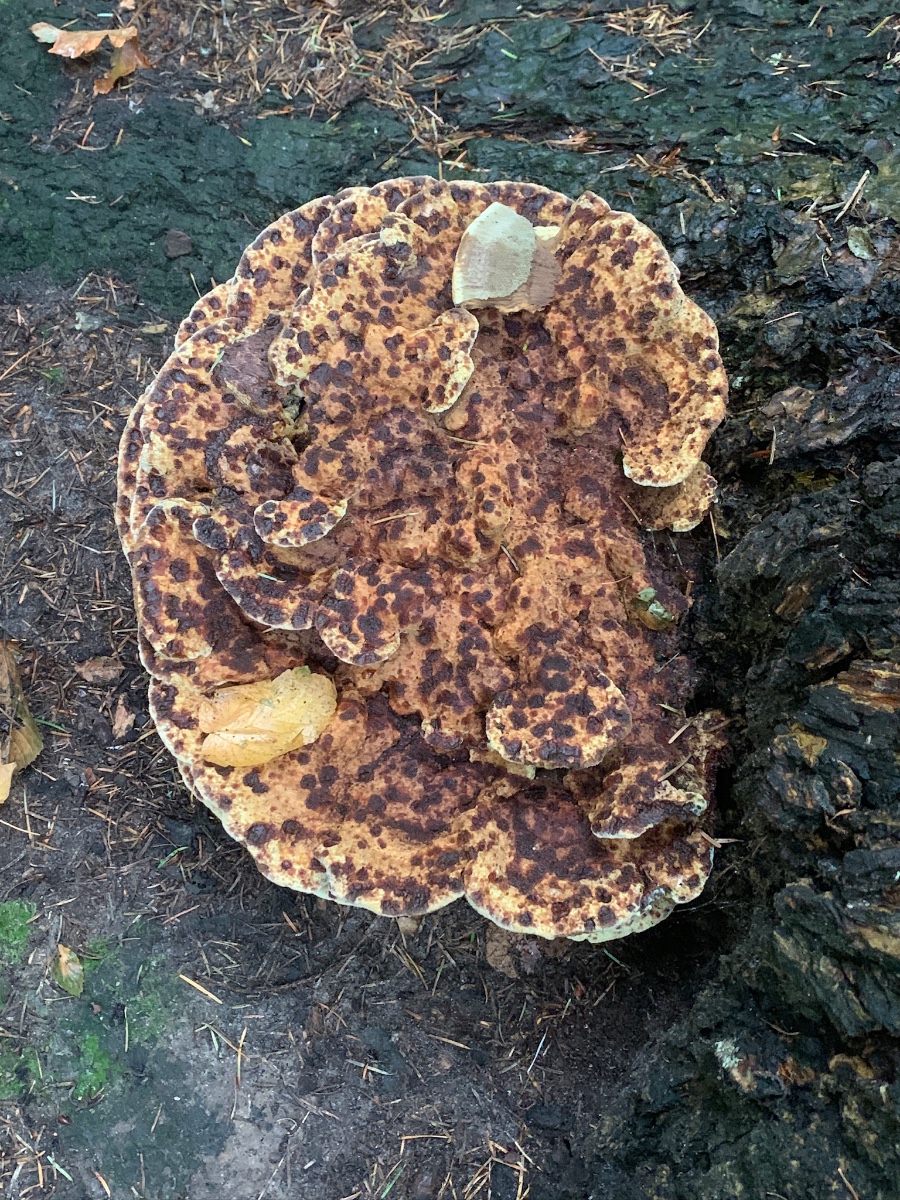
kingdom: Fungi
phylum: Basidiomycota
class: Agaricomycetes
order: Polyporales
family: Laetiporaceae
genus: Phaeolus
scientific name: Phaeolus schweinitzii
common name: brunporesvamp
